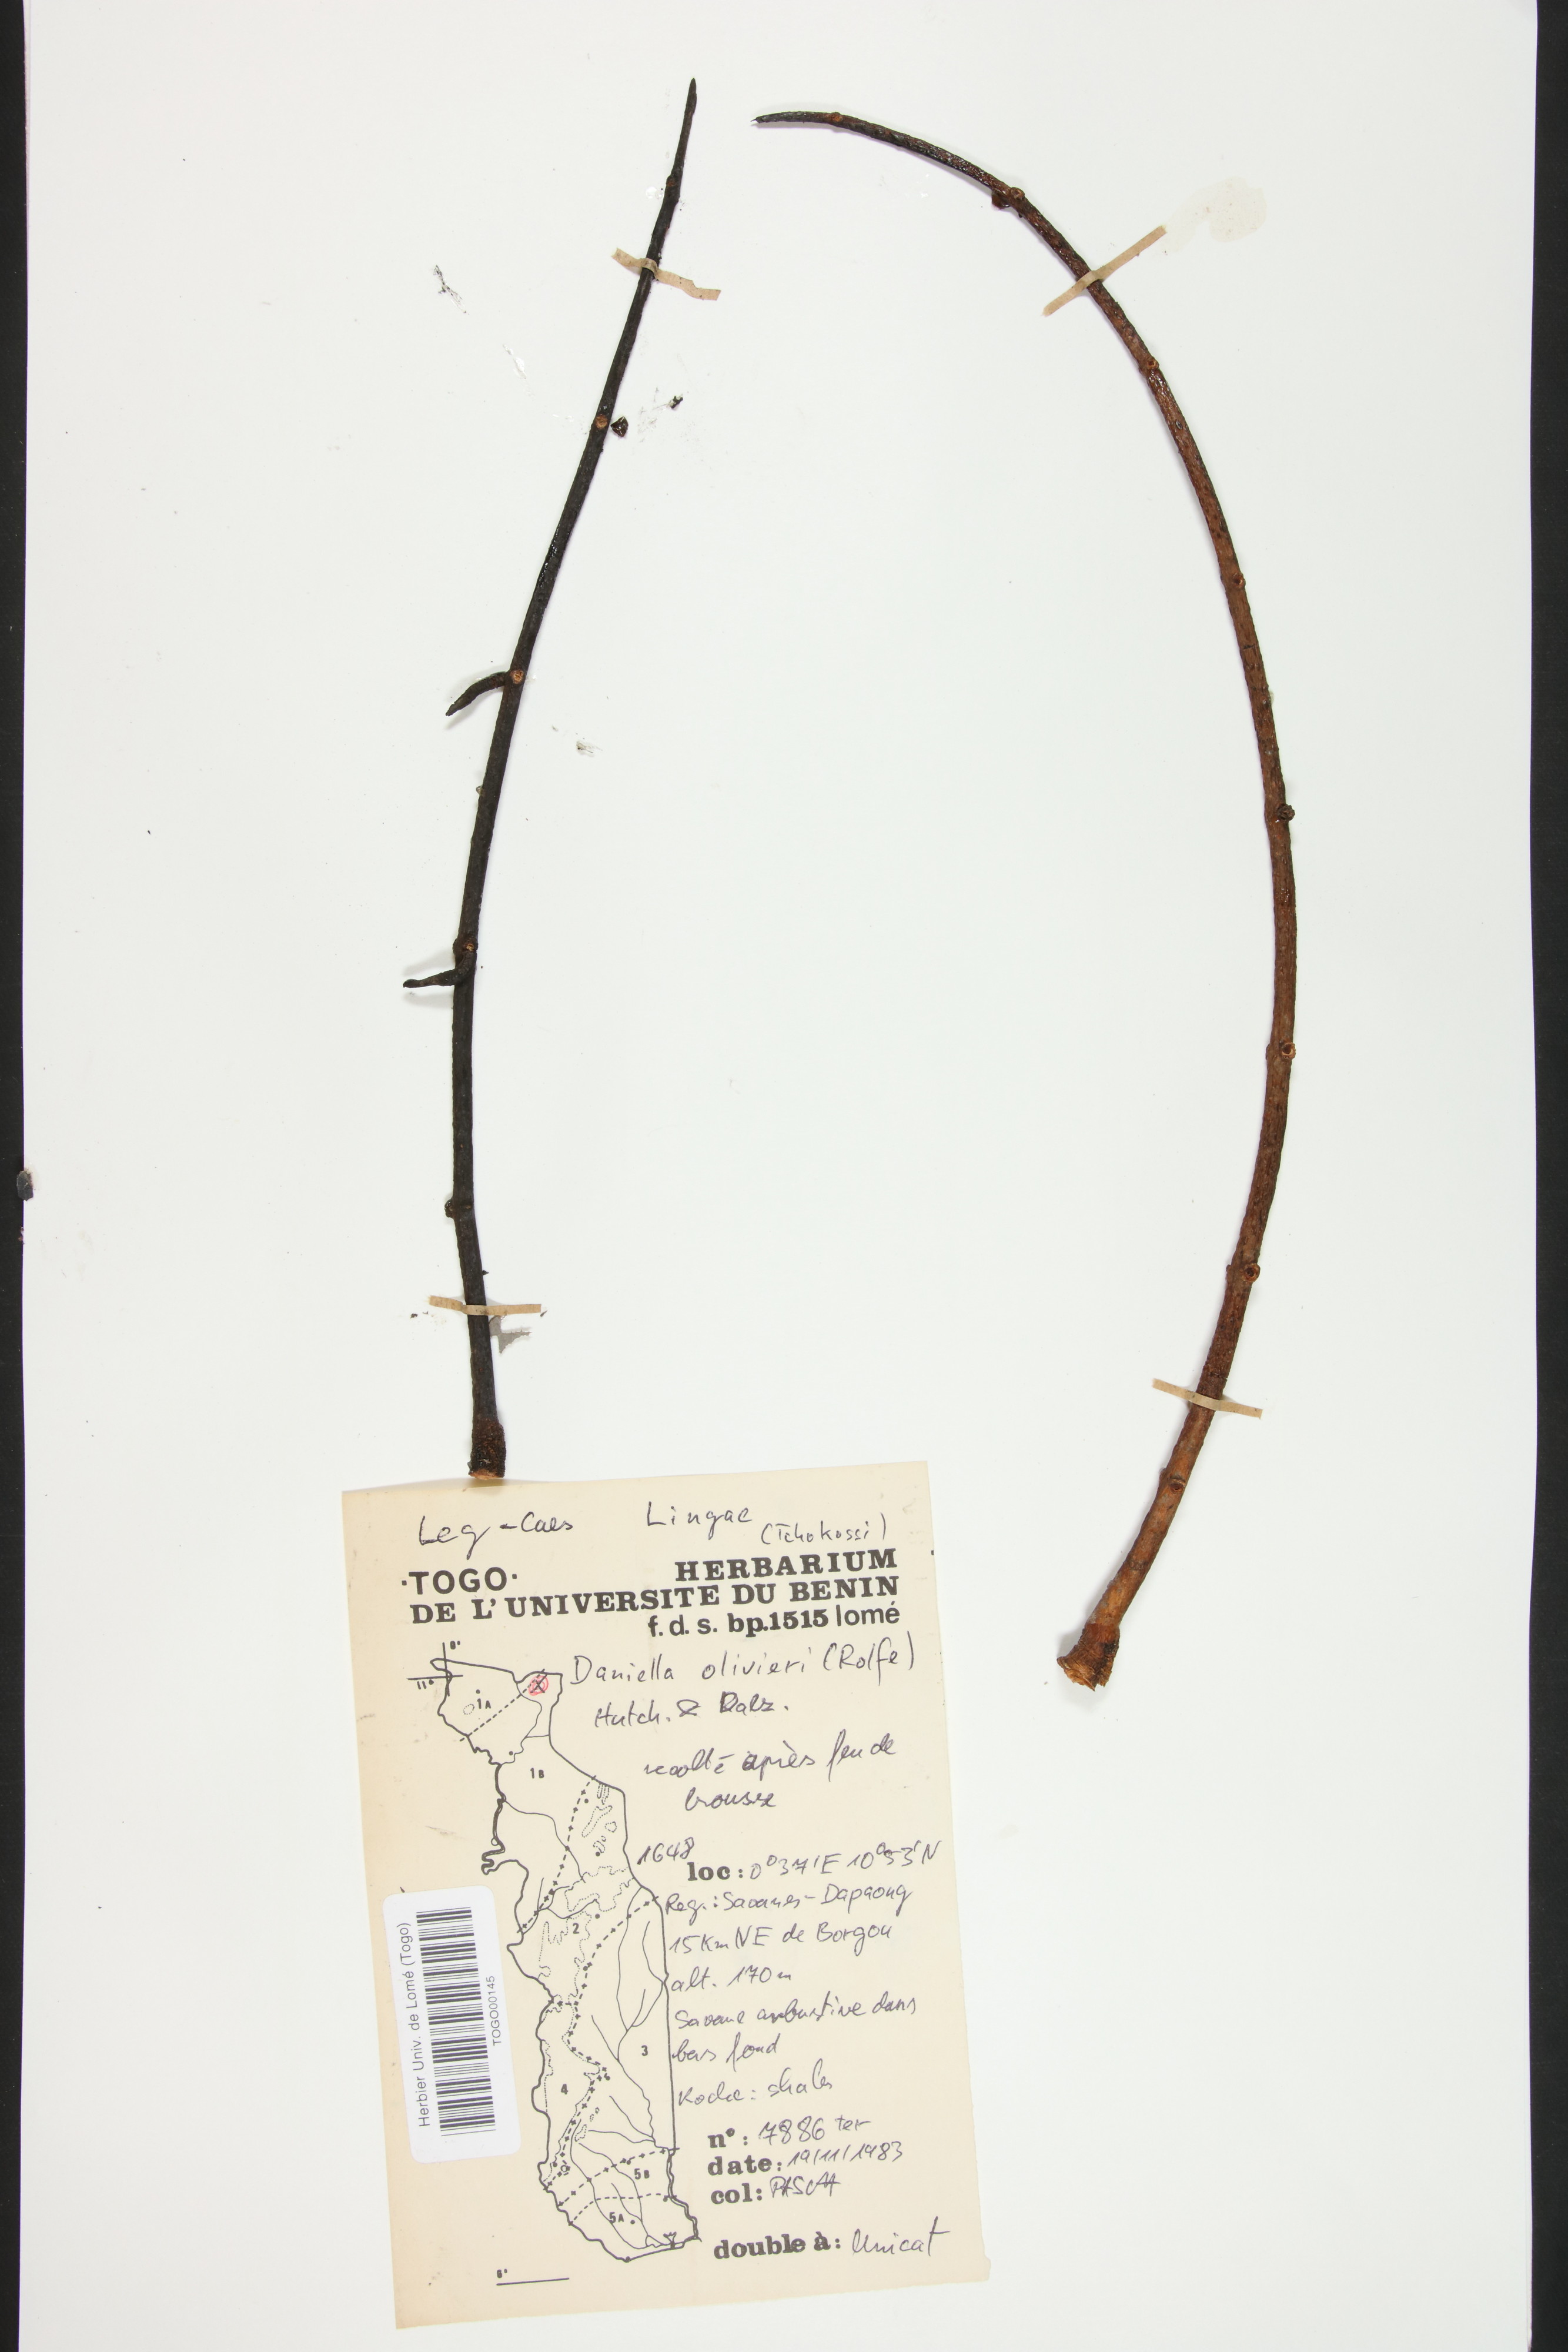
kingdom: Plantae
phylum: Tracheophyta
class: Magnoliopsida
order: Fabales
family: Fabaceae
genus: Daniellia
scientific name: Daniellia oliveri
